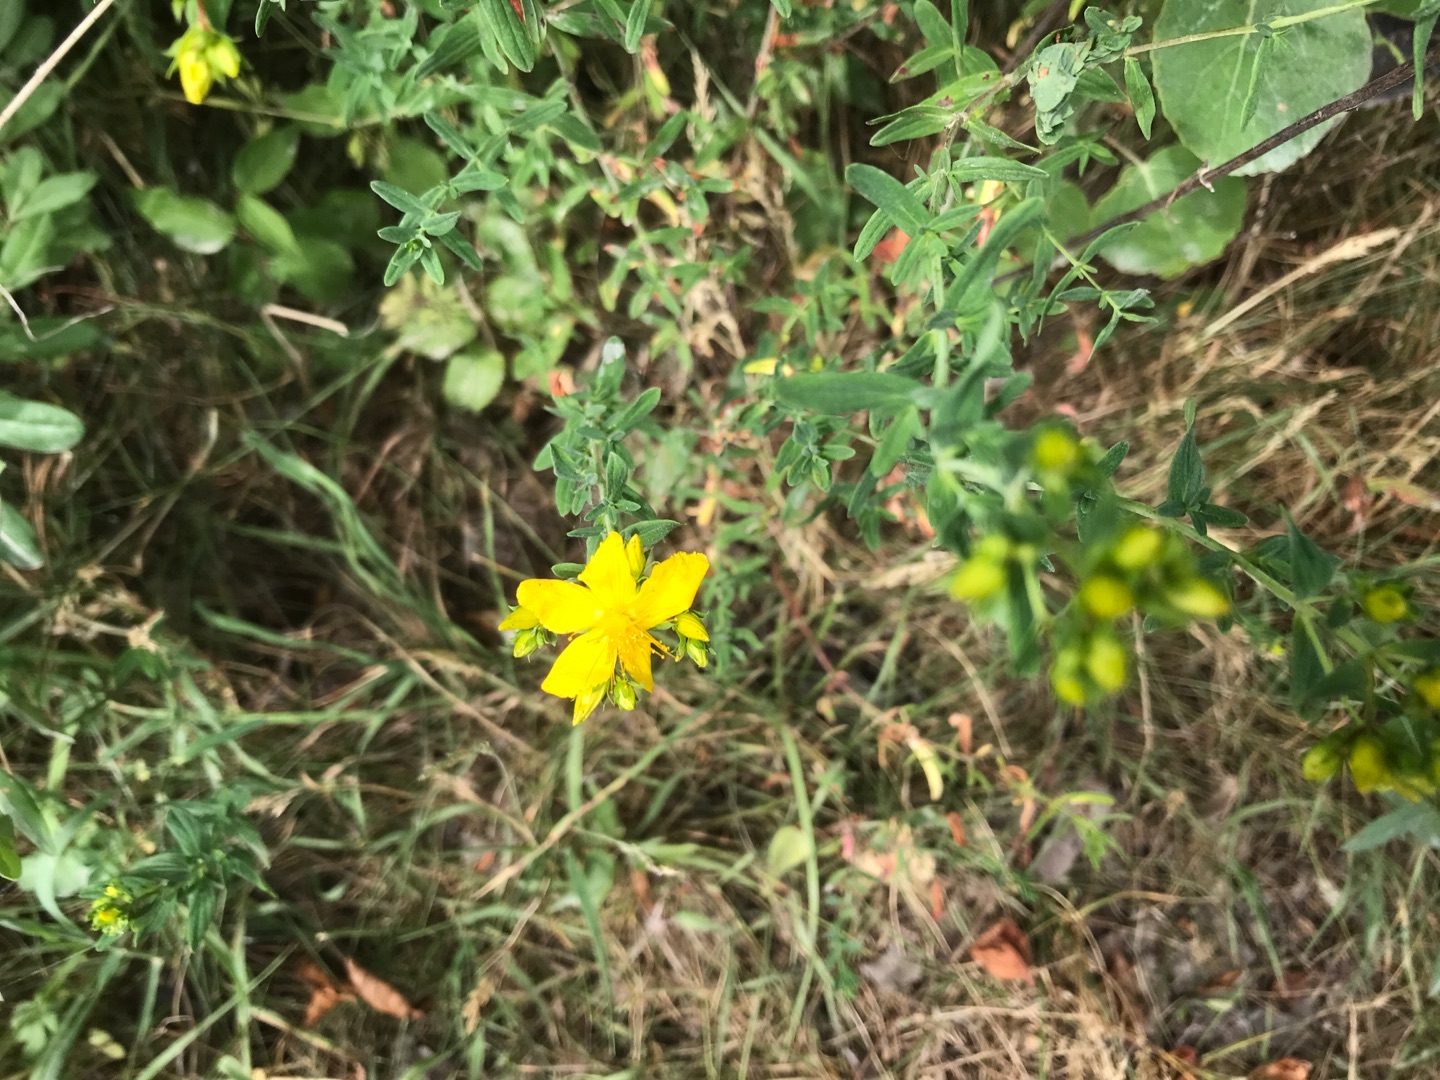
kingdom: Plantae
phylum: Tracheophyta
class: Magnoliopsida
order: Malpighiales
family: Hypericaceae
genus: Hypericum
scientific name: Hypericum perforatum
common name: Prikbladet perikon
